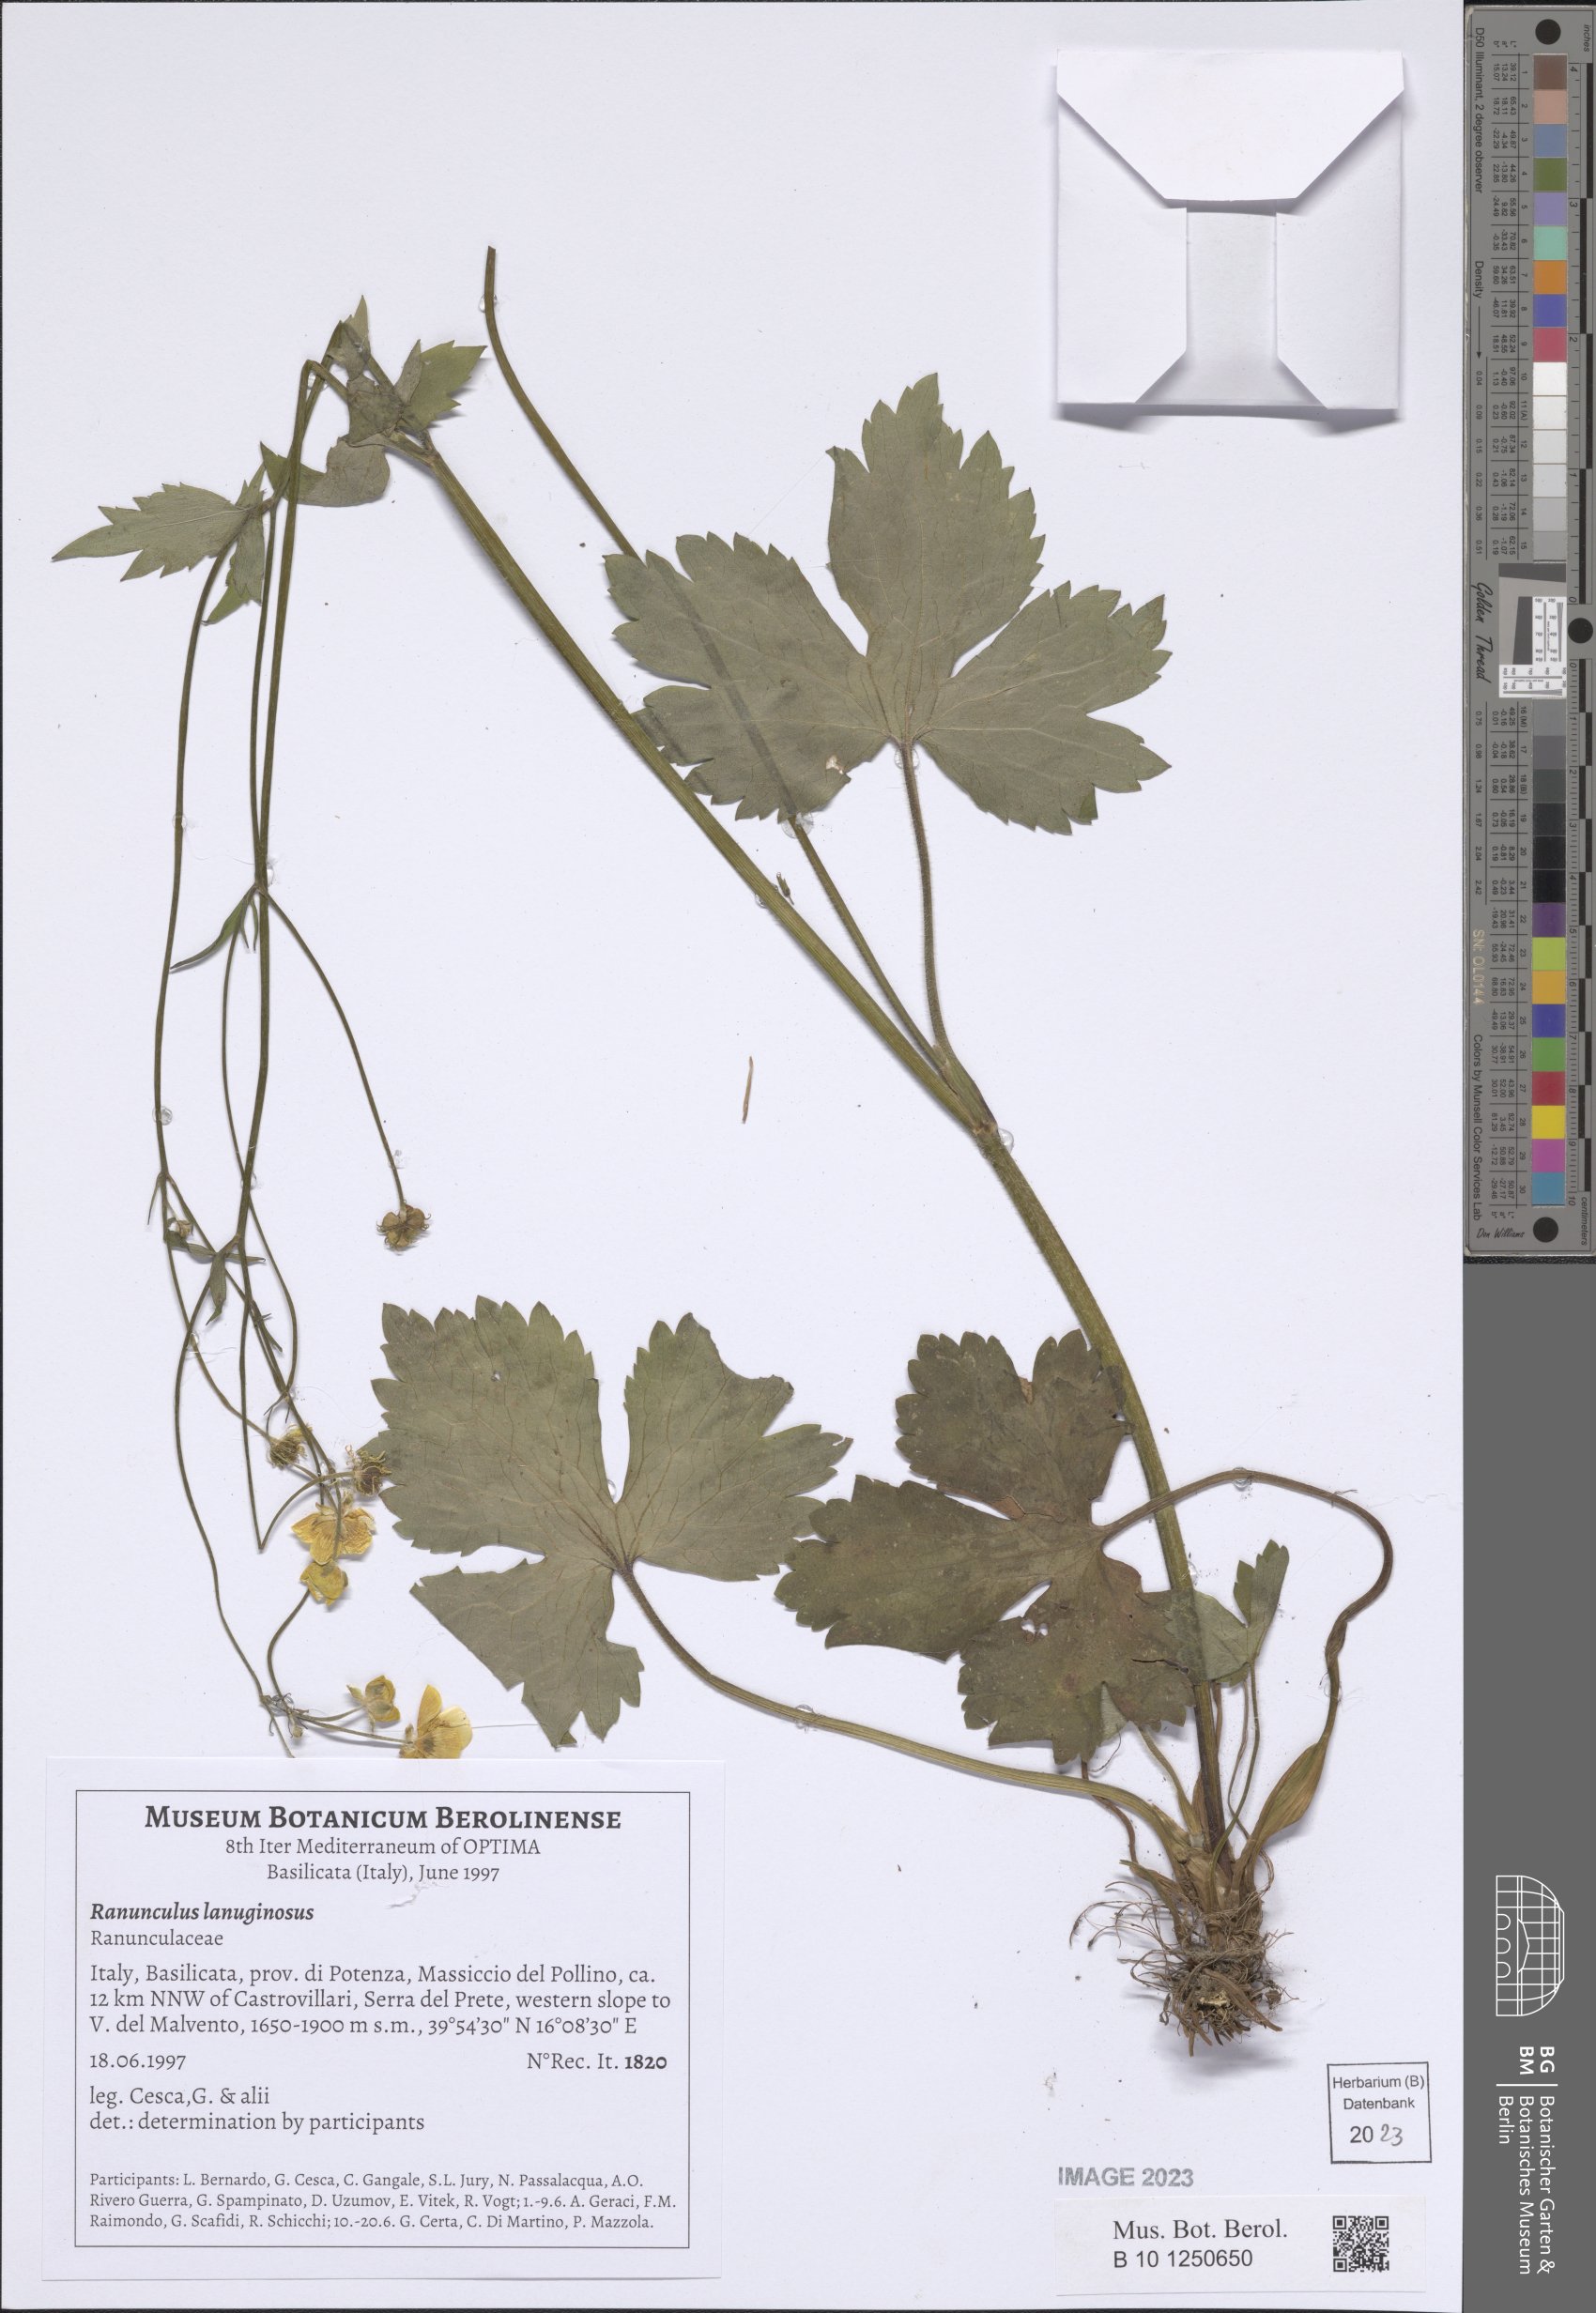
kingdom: Plantae
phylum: Tracheophyta
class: Magnoliopsida
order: Ranunculales
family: Ranunculaceae
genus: Ranunculus
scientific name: Ranunculus lanuginosus
